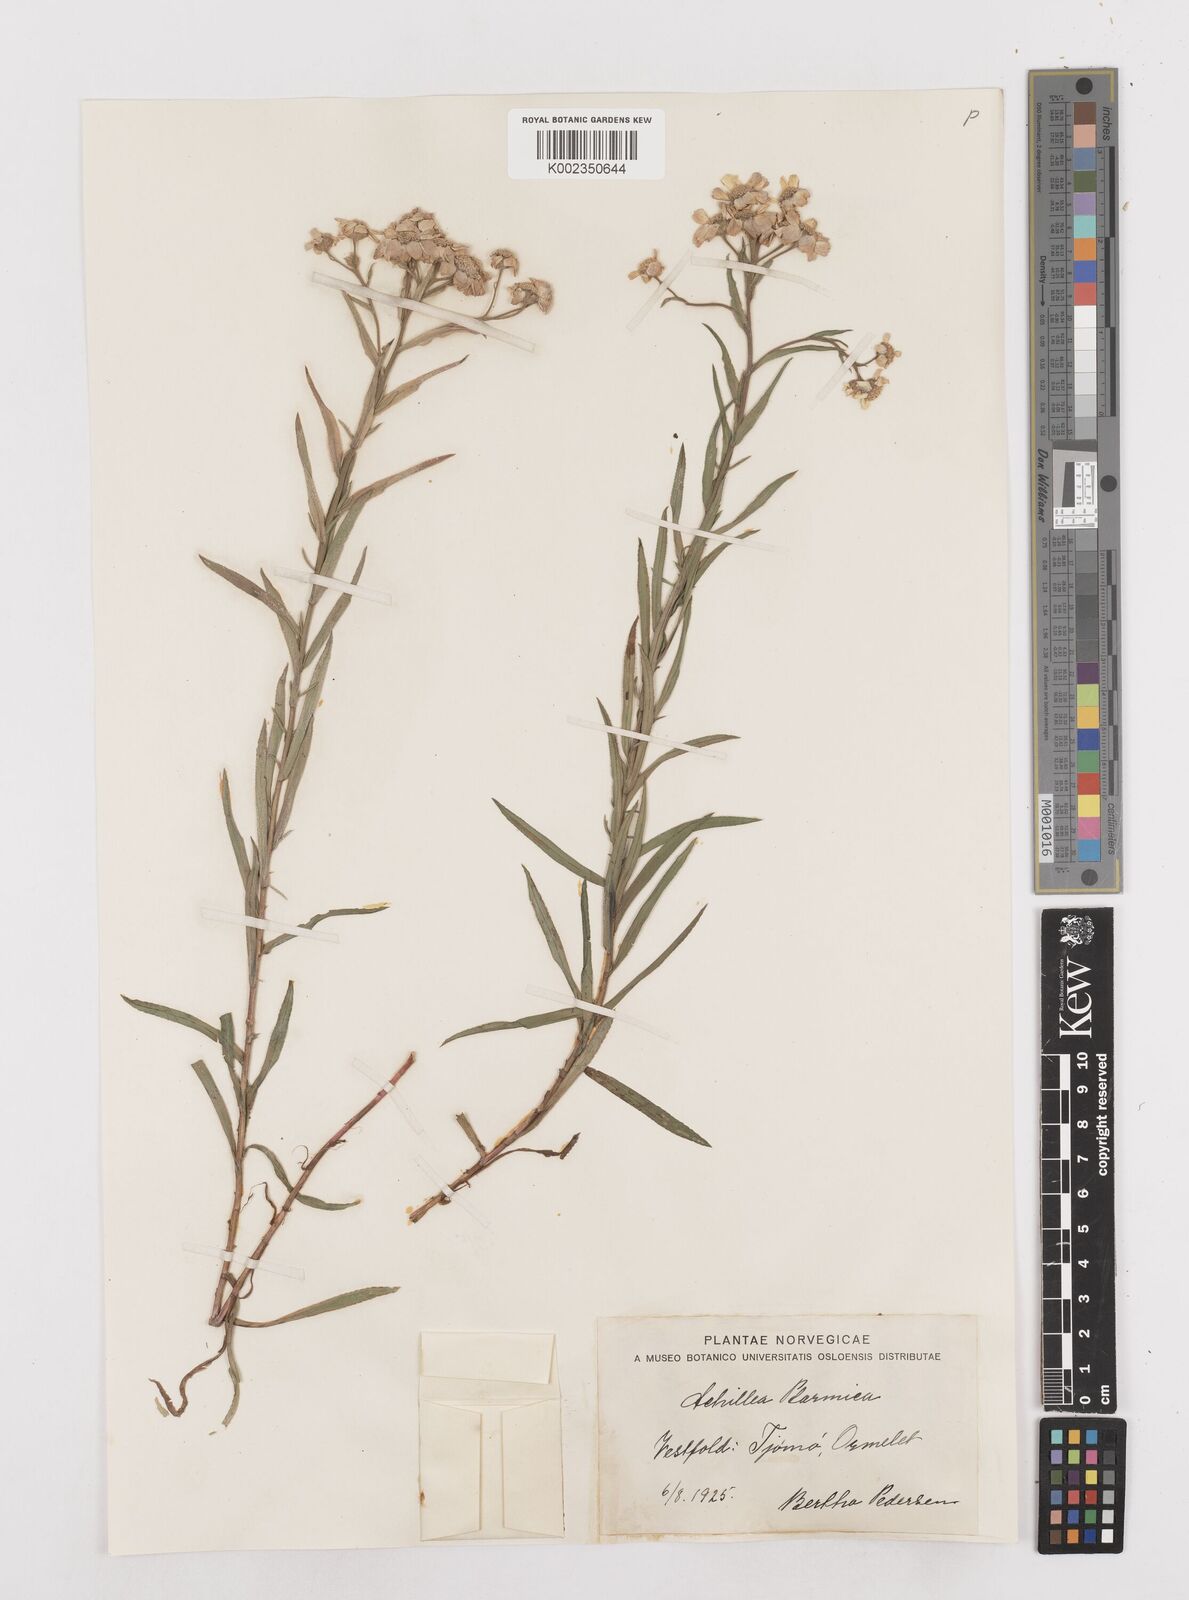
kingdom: Plantae
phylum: Tracheophyta
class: Magnoliopsida
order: Asterales
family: Asteraceae
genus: Achillea
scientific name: Achillea ptarmica
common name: Sneezeweed
